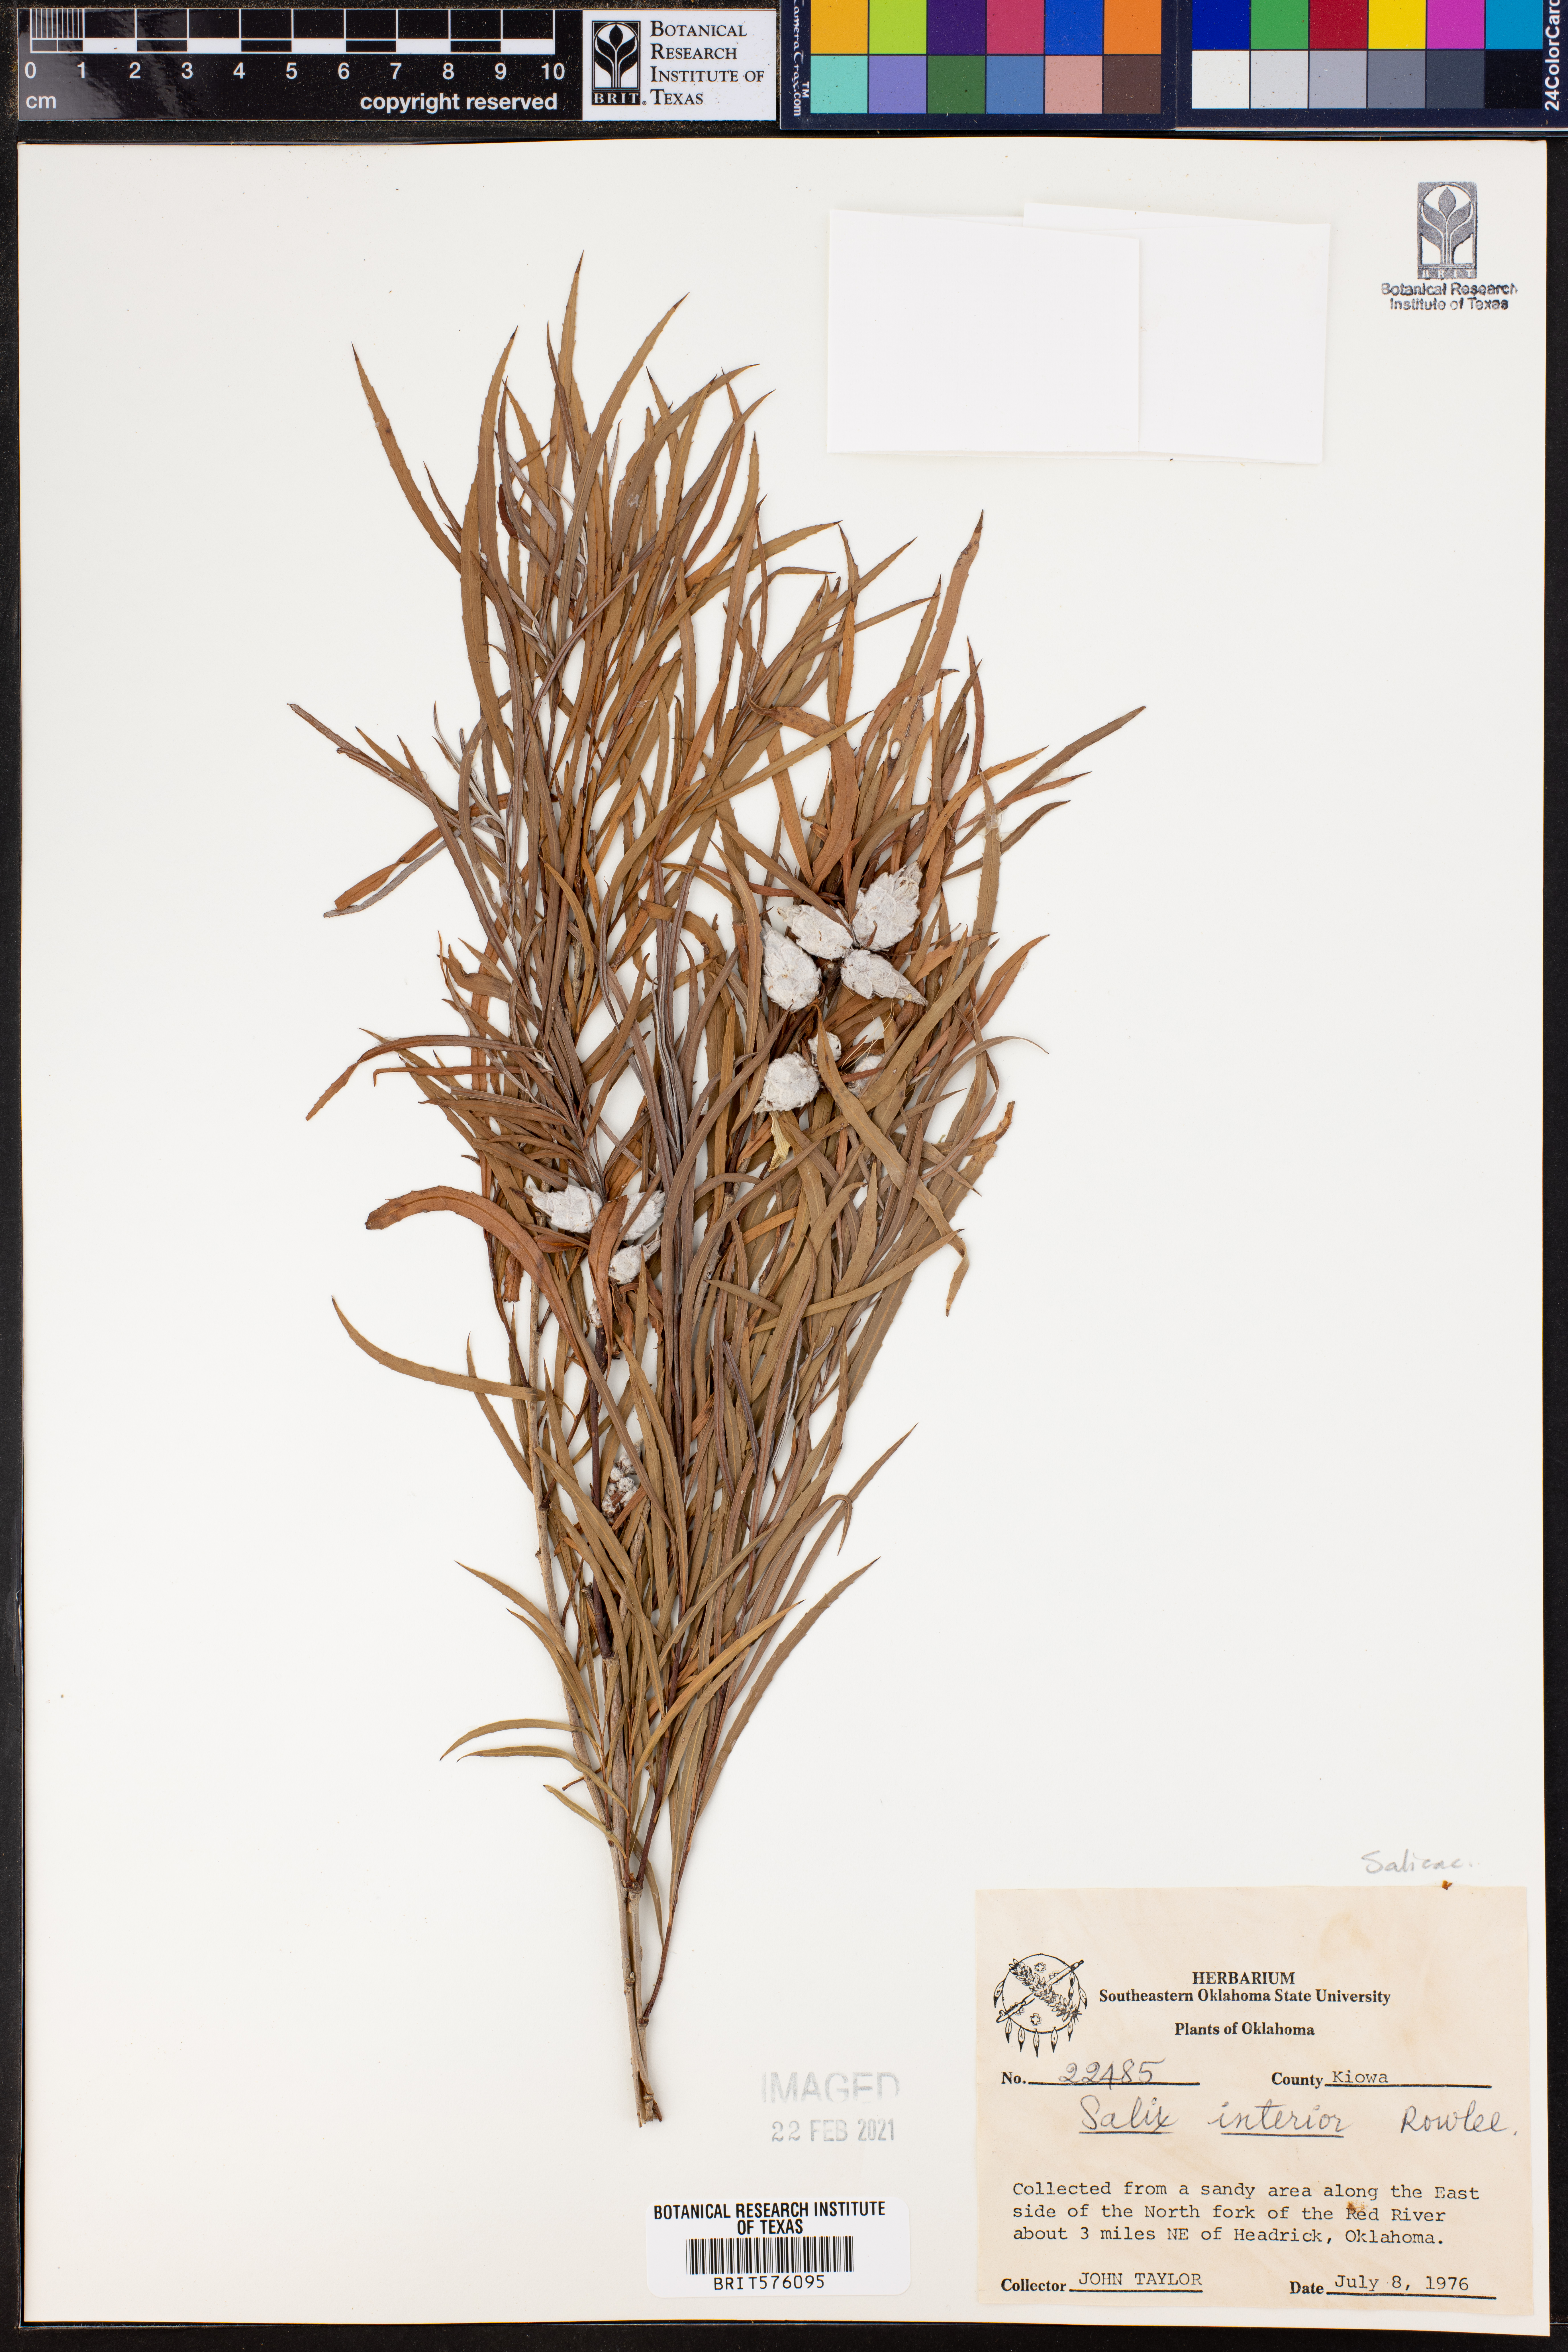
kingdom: Plantae
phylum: Tracheophyta
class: Magnoliopsida
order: Malpighiales
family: Salicaceae
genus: Salix
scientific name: Salix interior
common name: Sandbar willow
